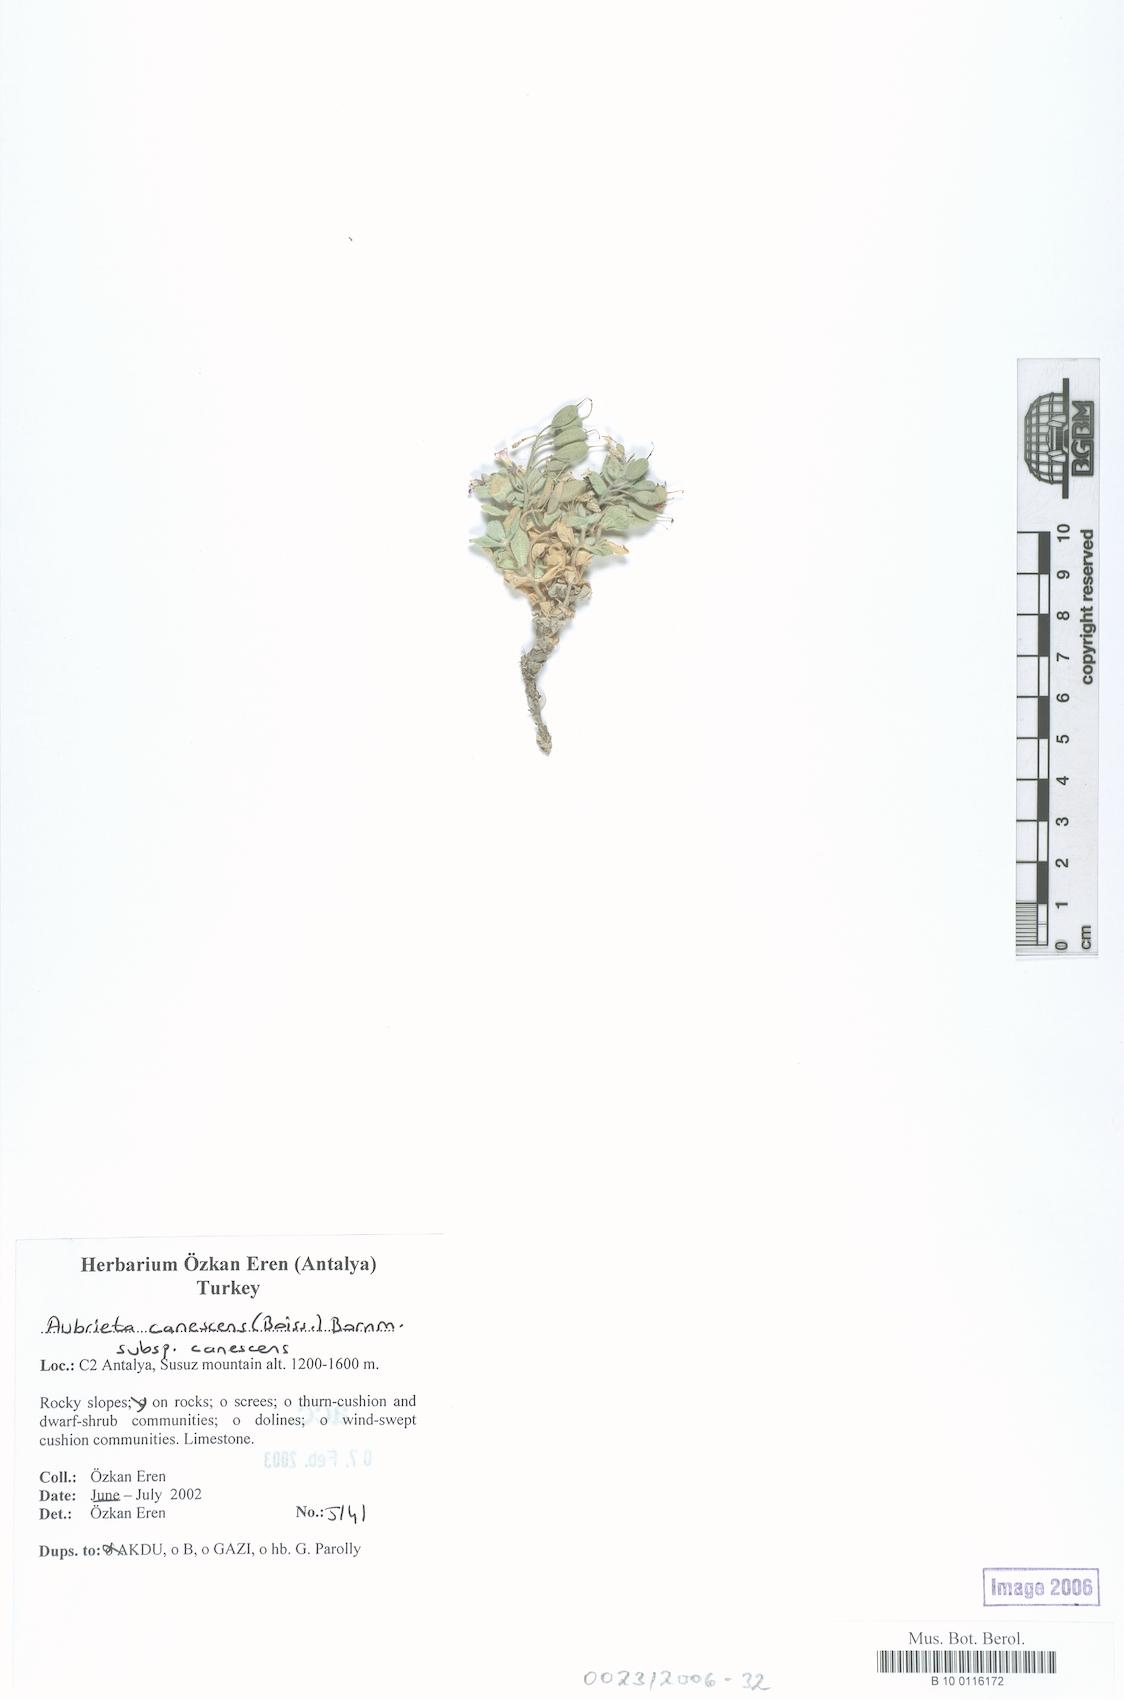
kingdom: Plantae
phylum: Tracheophyta
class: Magnoliopsida
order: Brassicales
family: Brassicaceae
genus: Aubrieta
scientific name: Aubrieta deltoidea
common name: Aubretia
